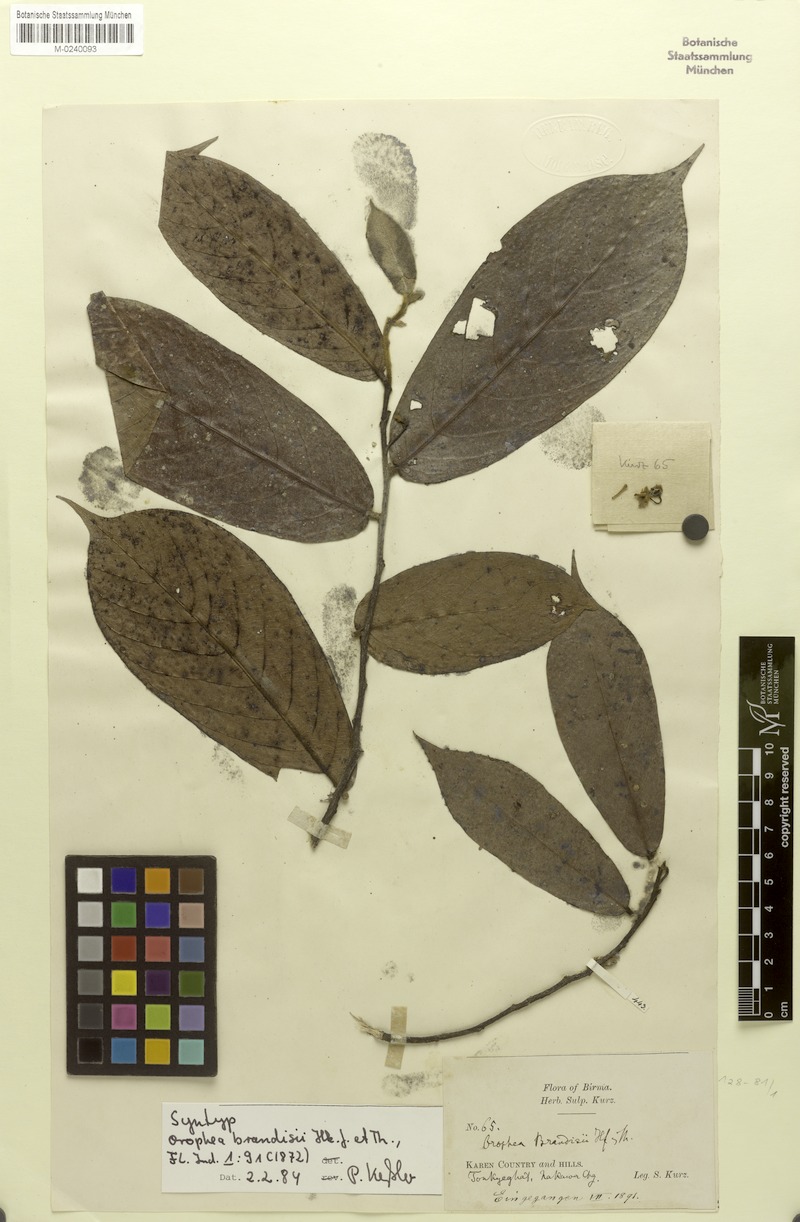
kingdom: Plantae
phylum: Tracheophyta
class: Magnoliopsida
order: Magnoliales
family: Annonaceae
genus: Orophea
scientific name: Orophea brandisii
